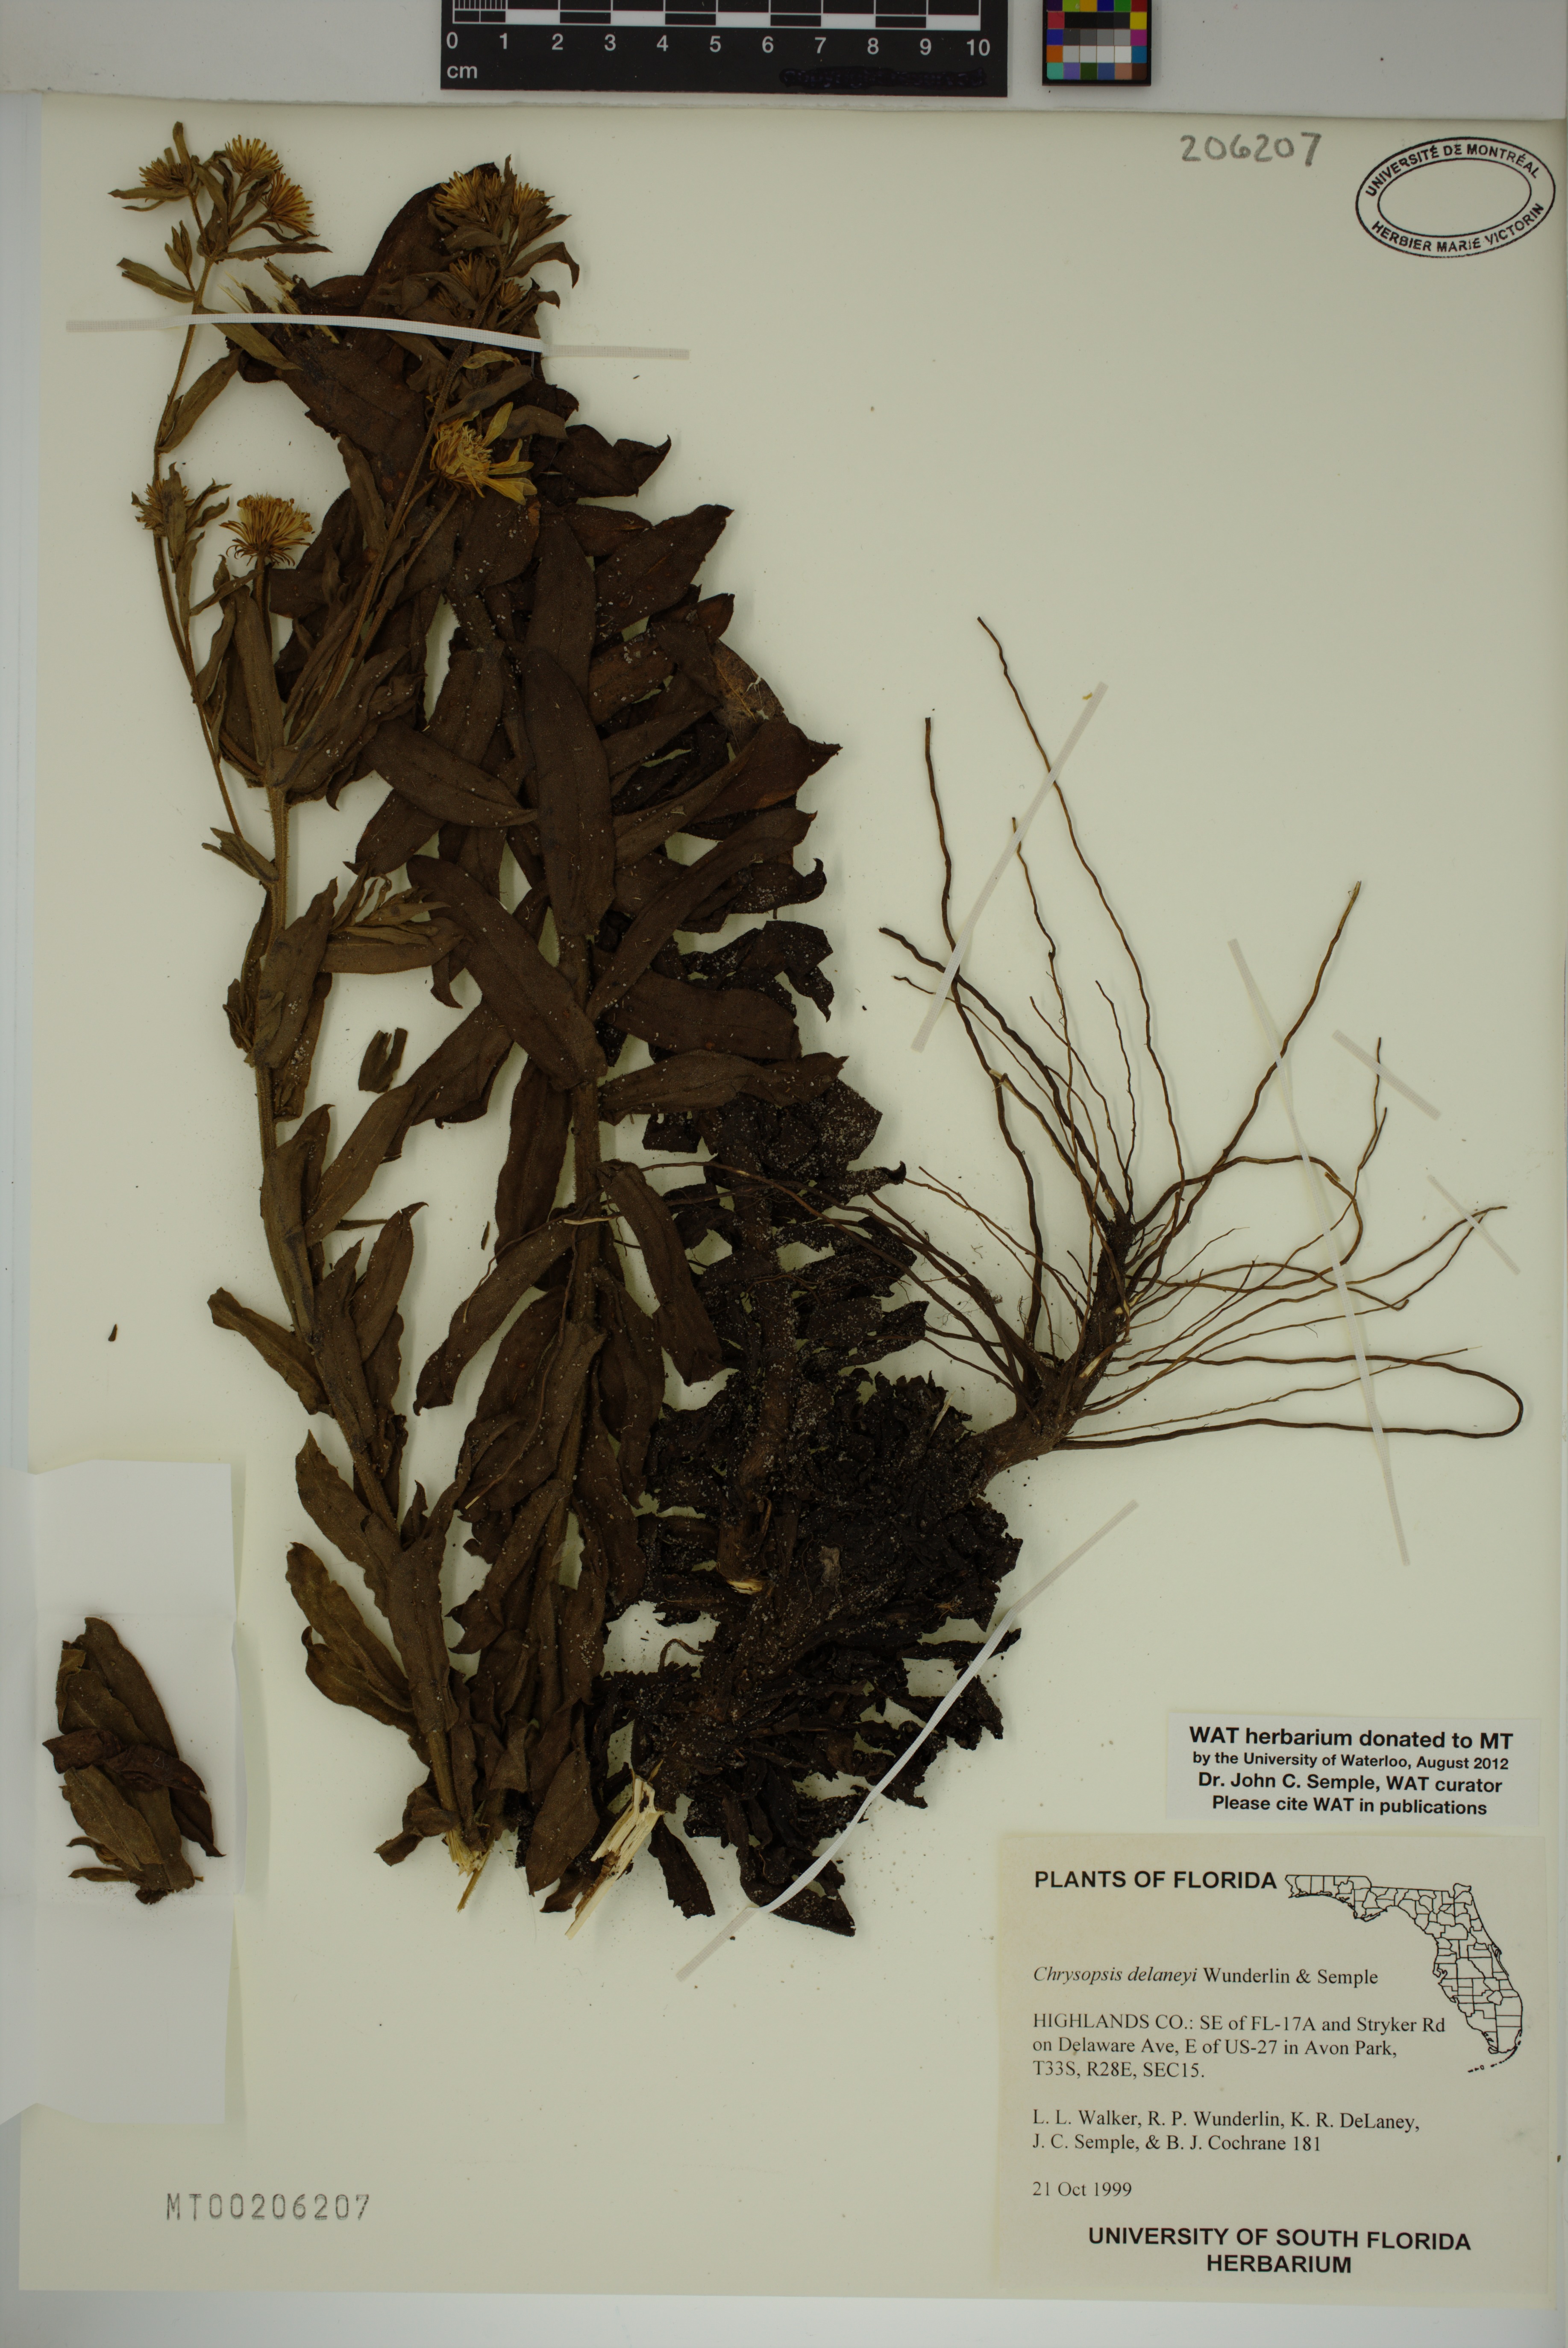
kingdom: Plantae
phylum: Tracheophyta
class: Magnoliopsida
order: Asterales
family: Asteraceae
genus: Chrysopsis
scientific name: Chrysopsis delaneyi
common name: Delaney's goldenaster
